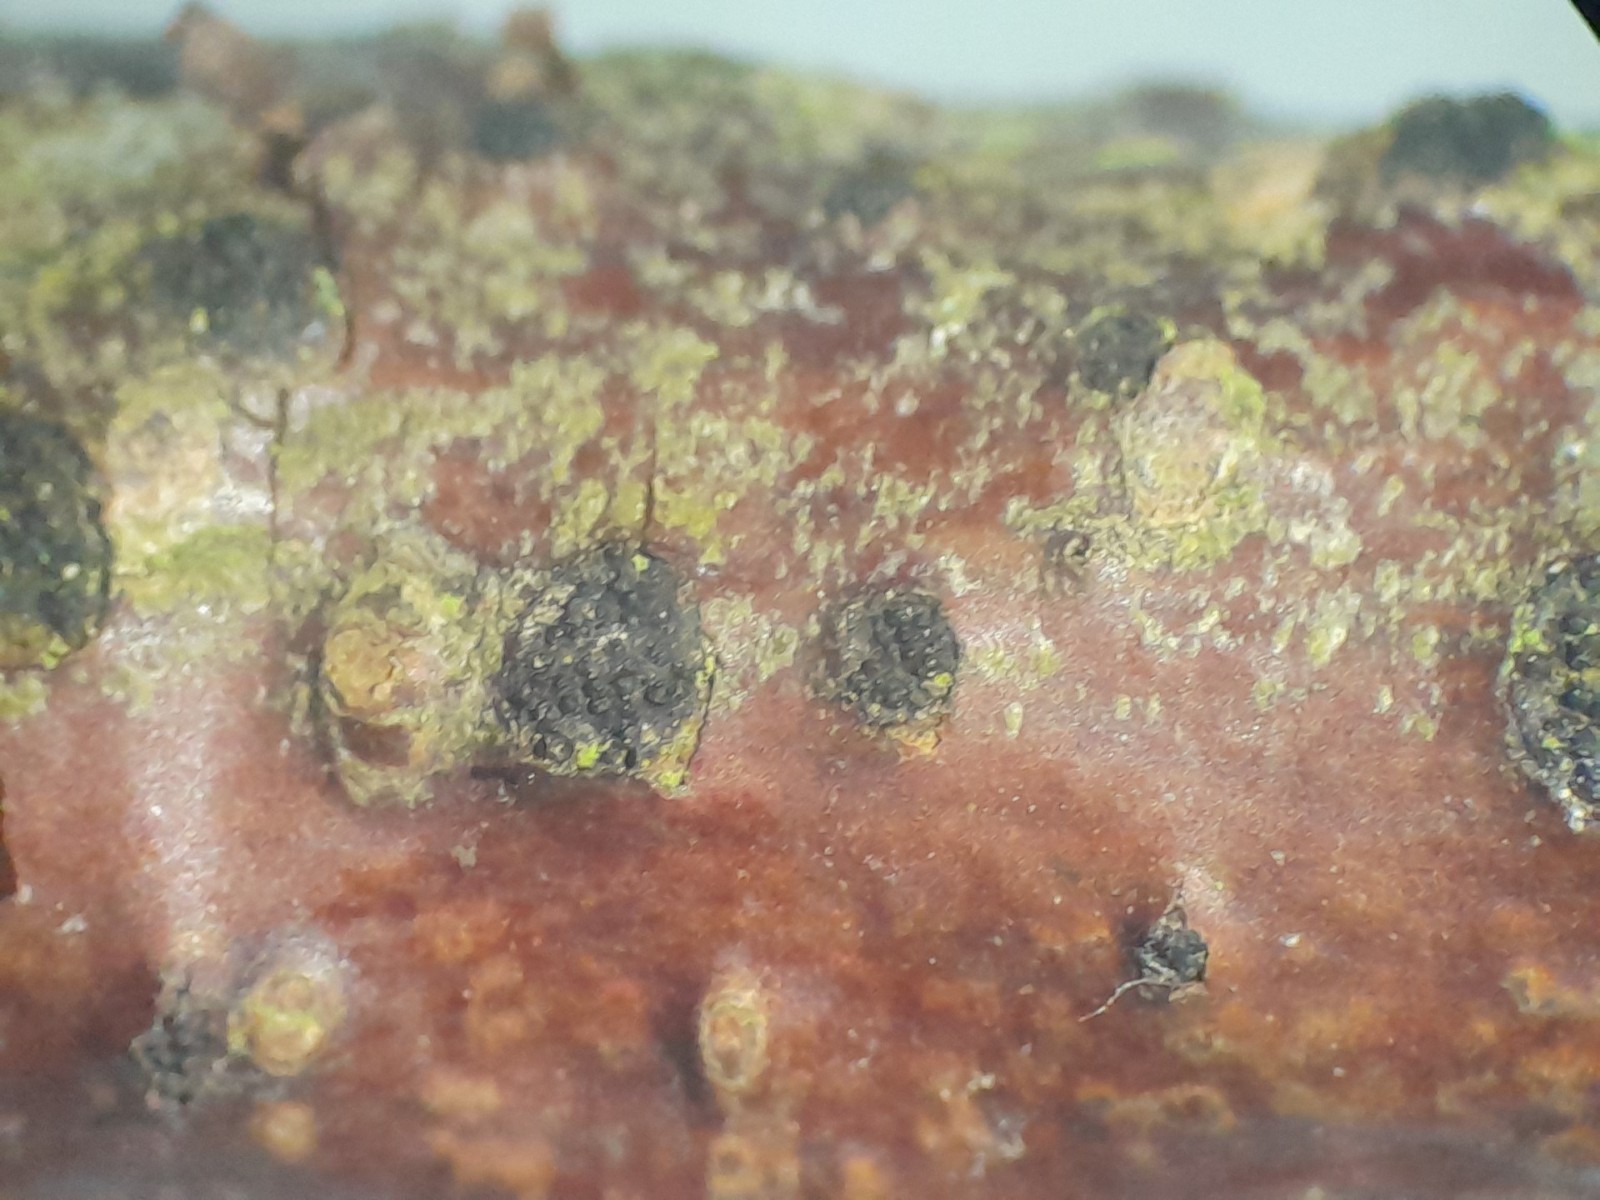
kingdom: Fungi
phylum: Ascomycota
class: Sordariomycetes
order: Diaporthales
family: Diaporthaceae
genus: Diaporthe
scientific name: Diaporthe
